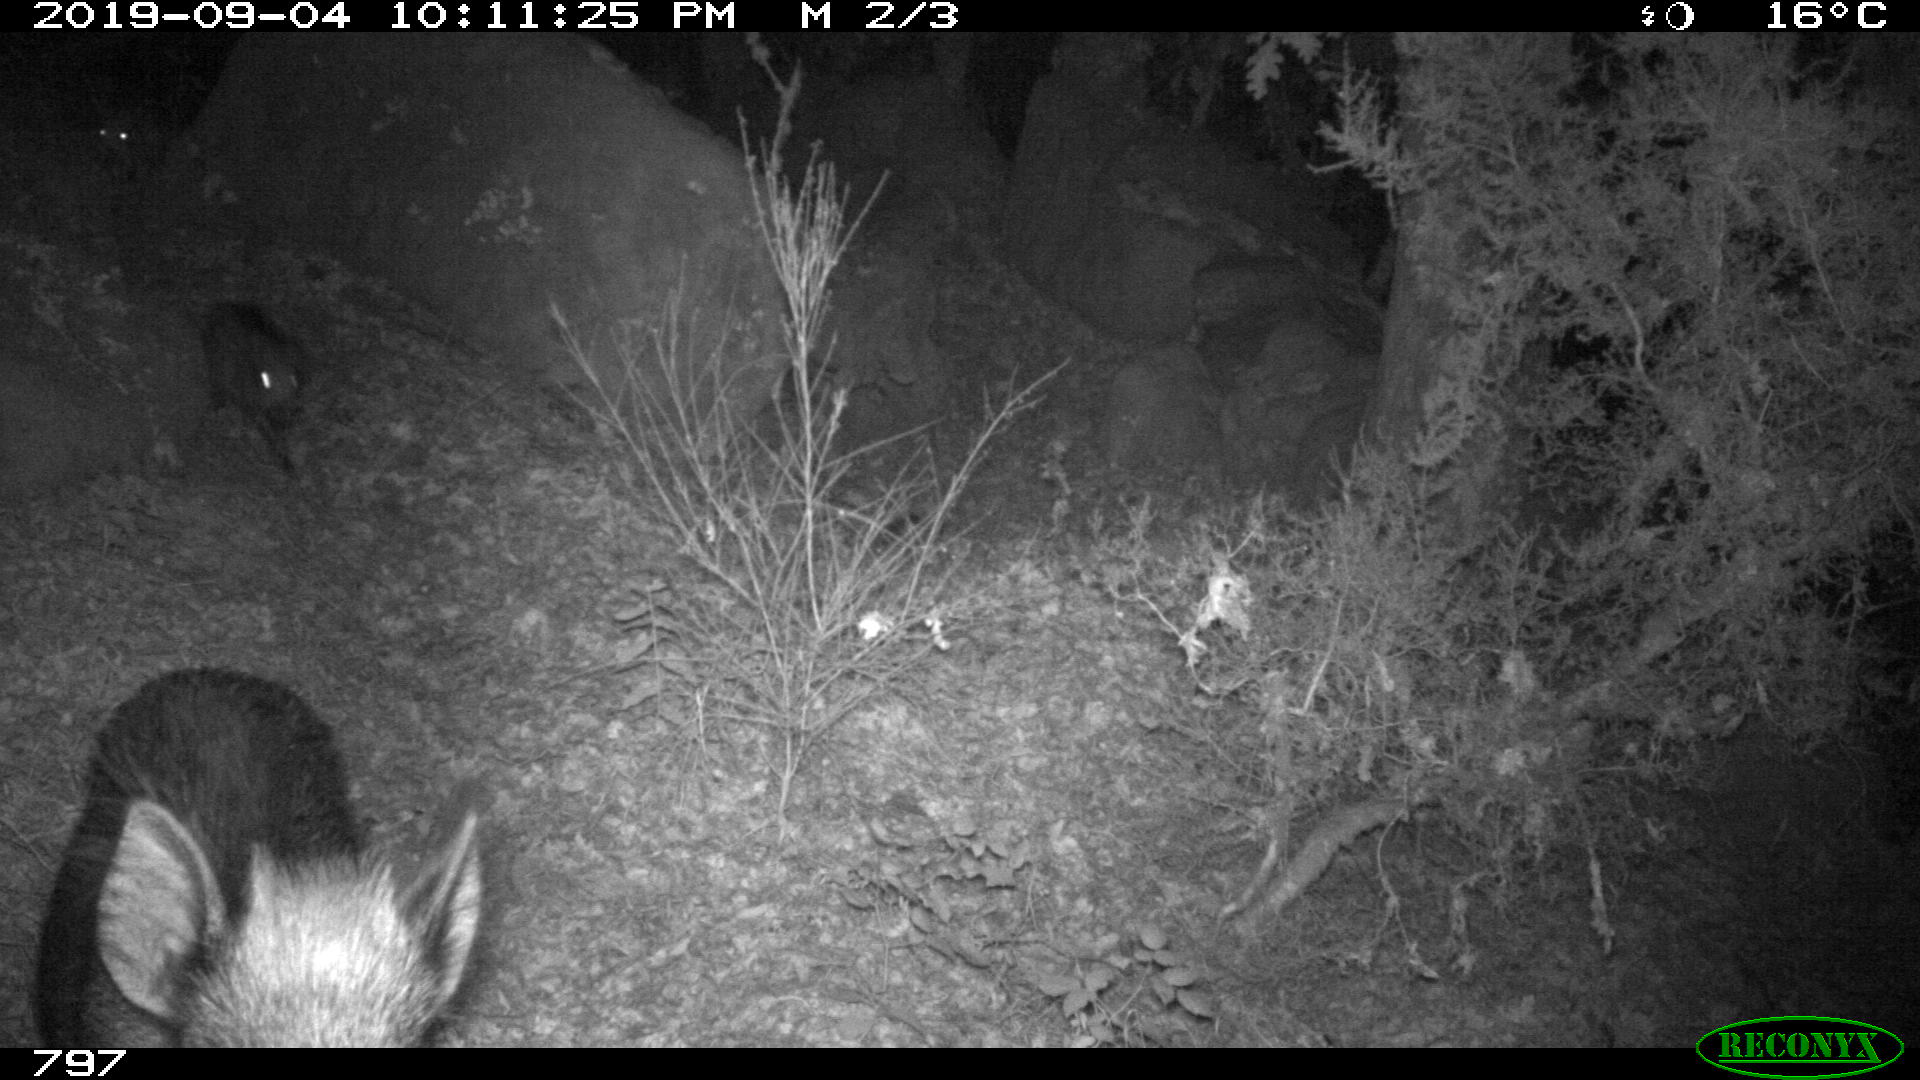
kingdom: Animalia
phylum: Chordata
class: Mammalia
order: Artiodactyla
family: Suidae
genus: Sus
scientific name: Sus scrofa
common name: Wild boar
